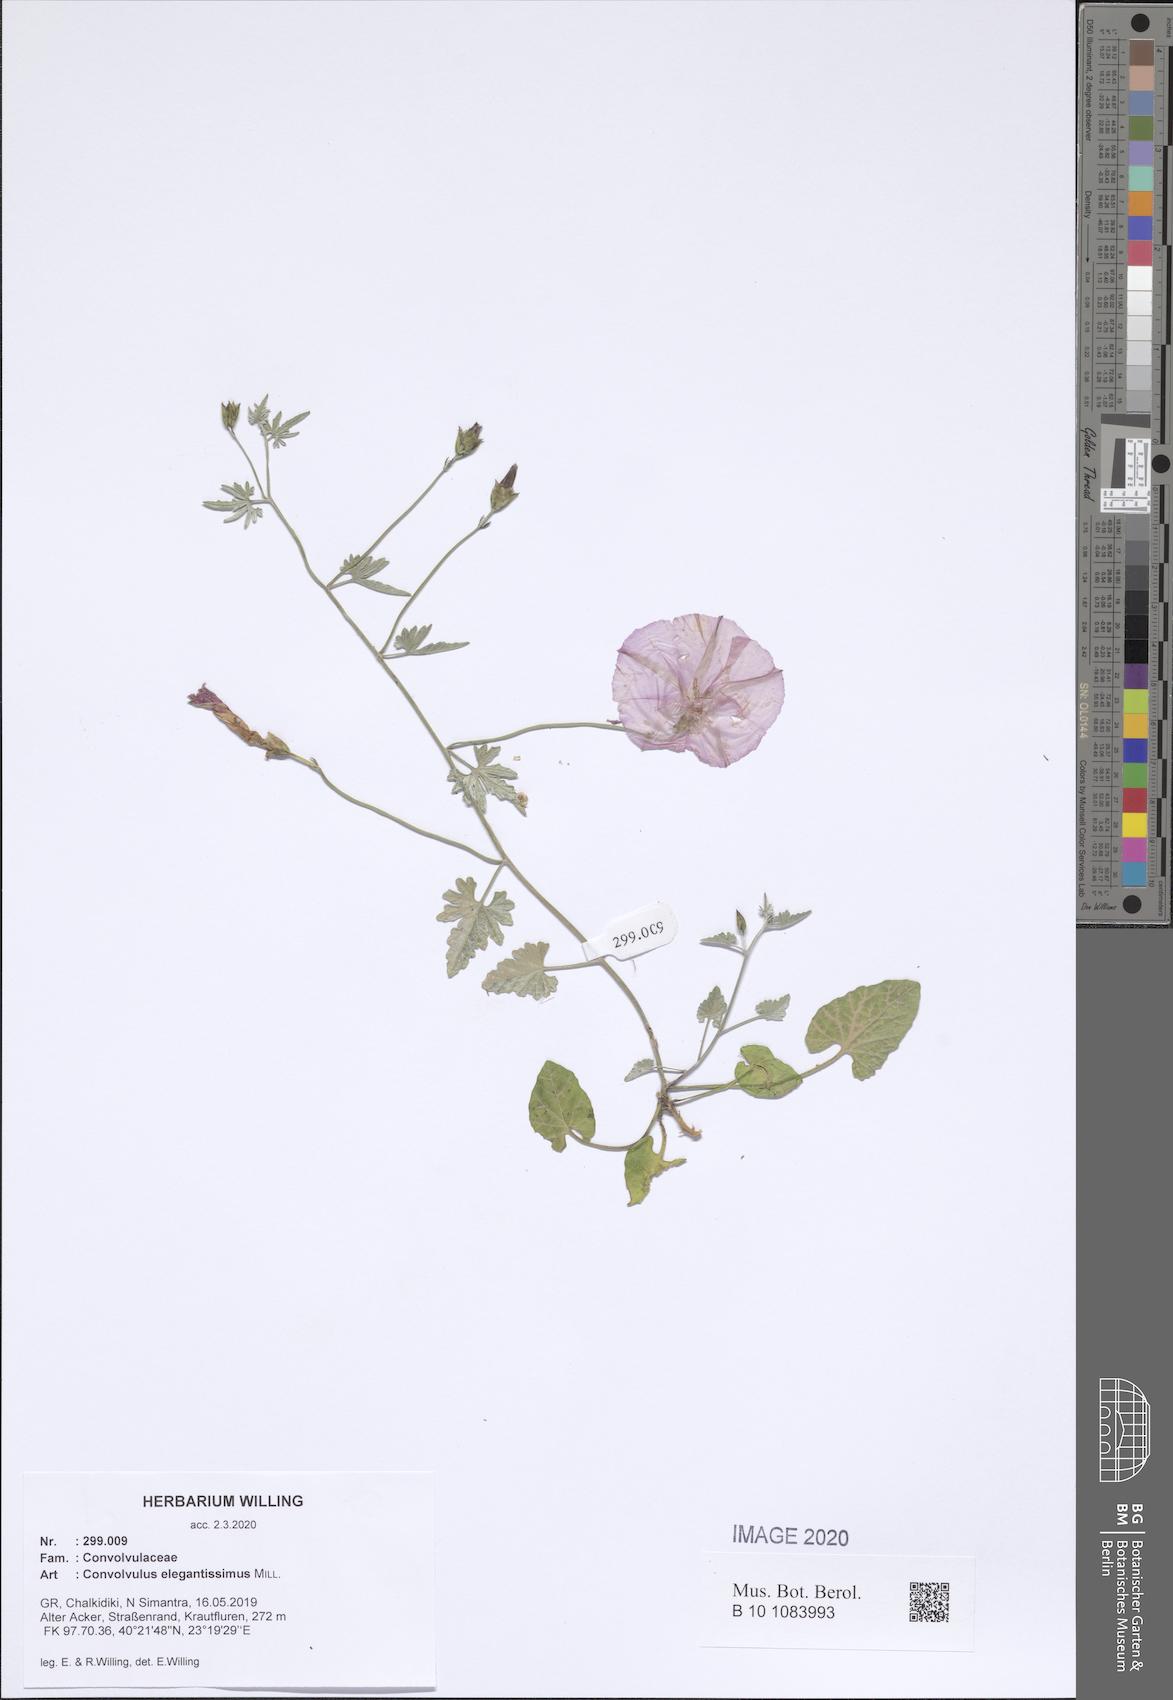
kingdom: Plantae
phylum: Tracheophyta
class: Magnoliopsida
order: Solanales
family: Convolvulaceae
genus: Convolvulus
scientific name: Convolvulus elegantissimus
